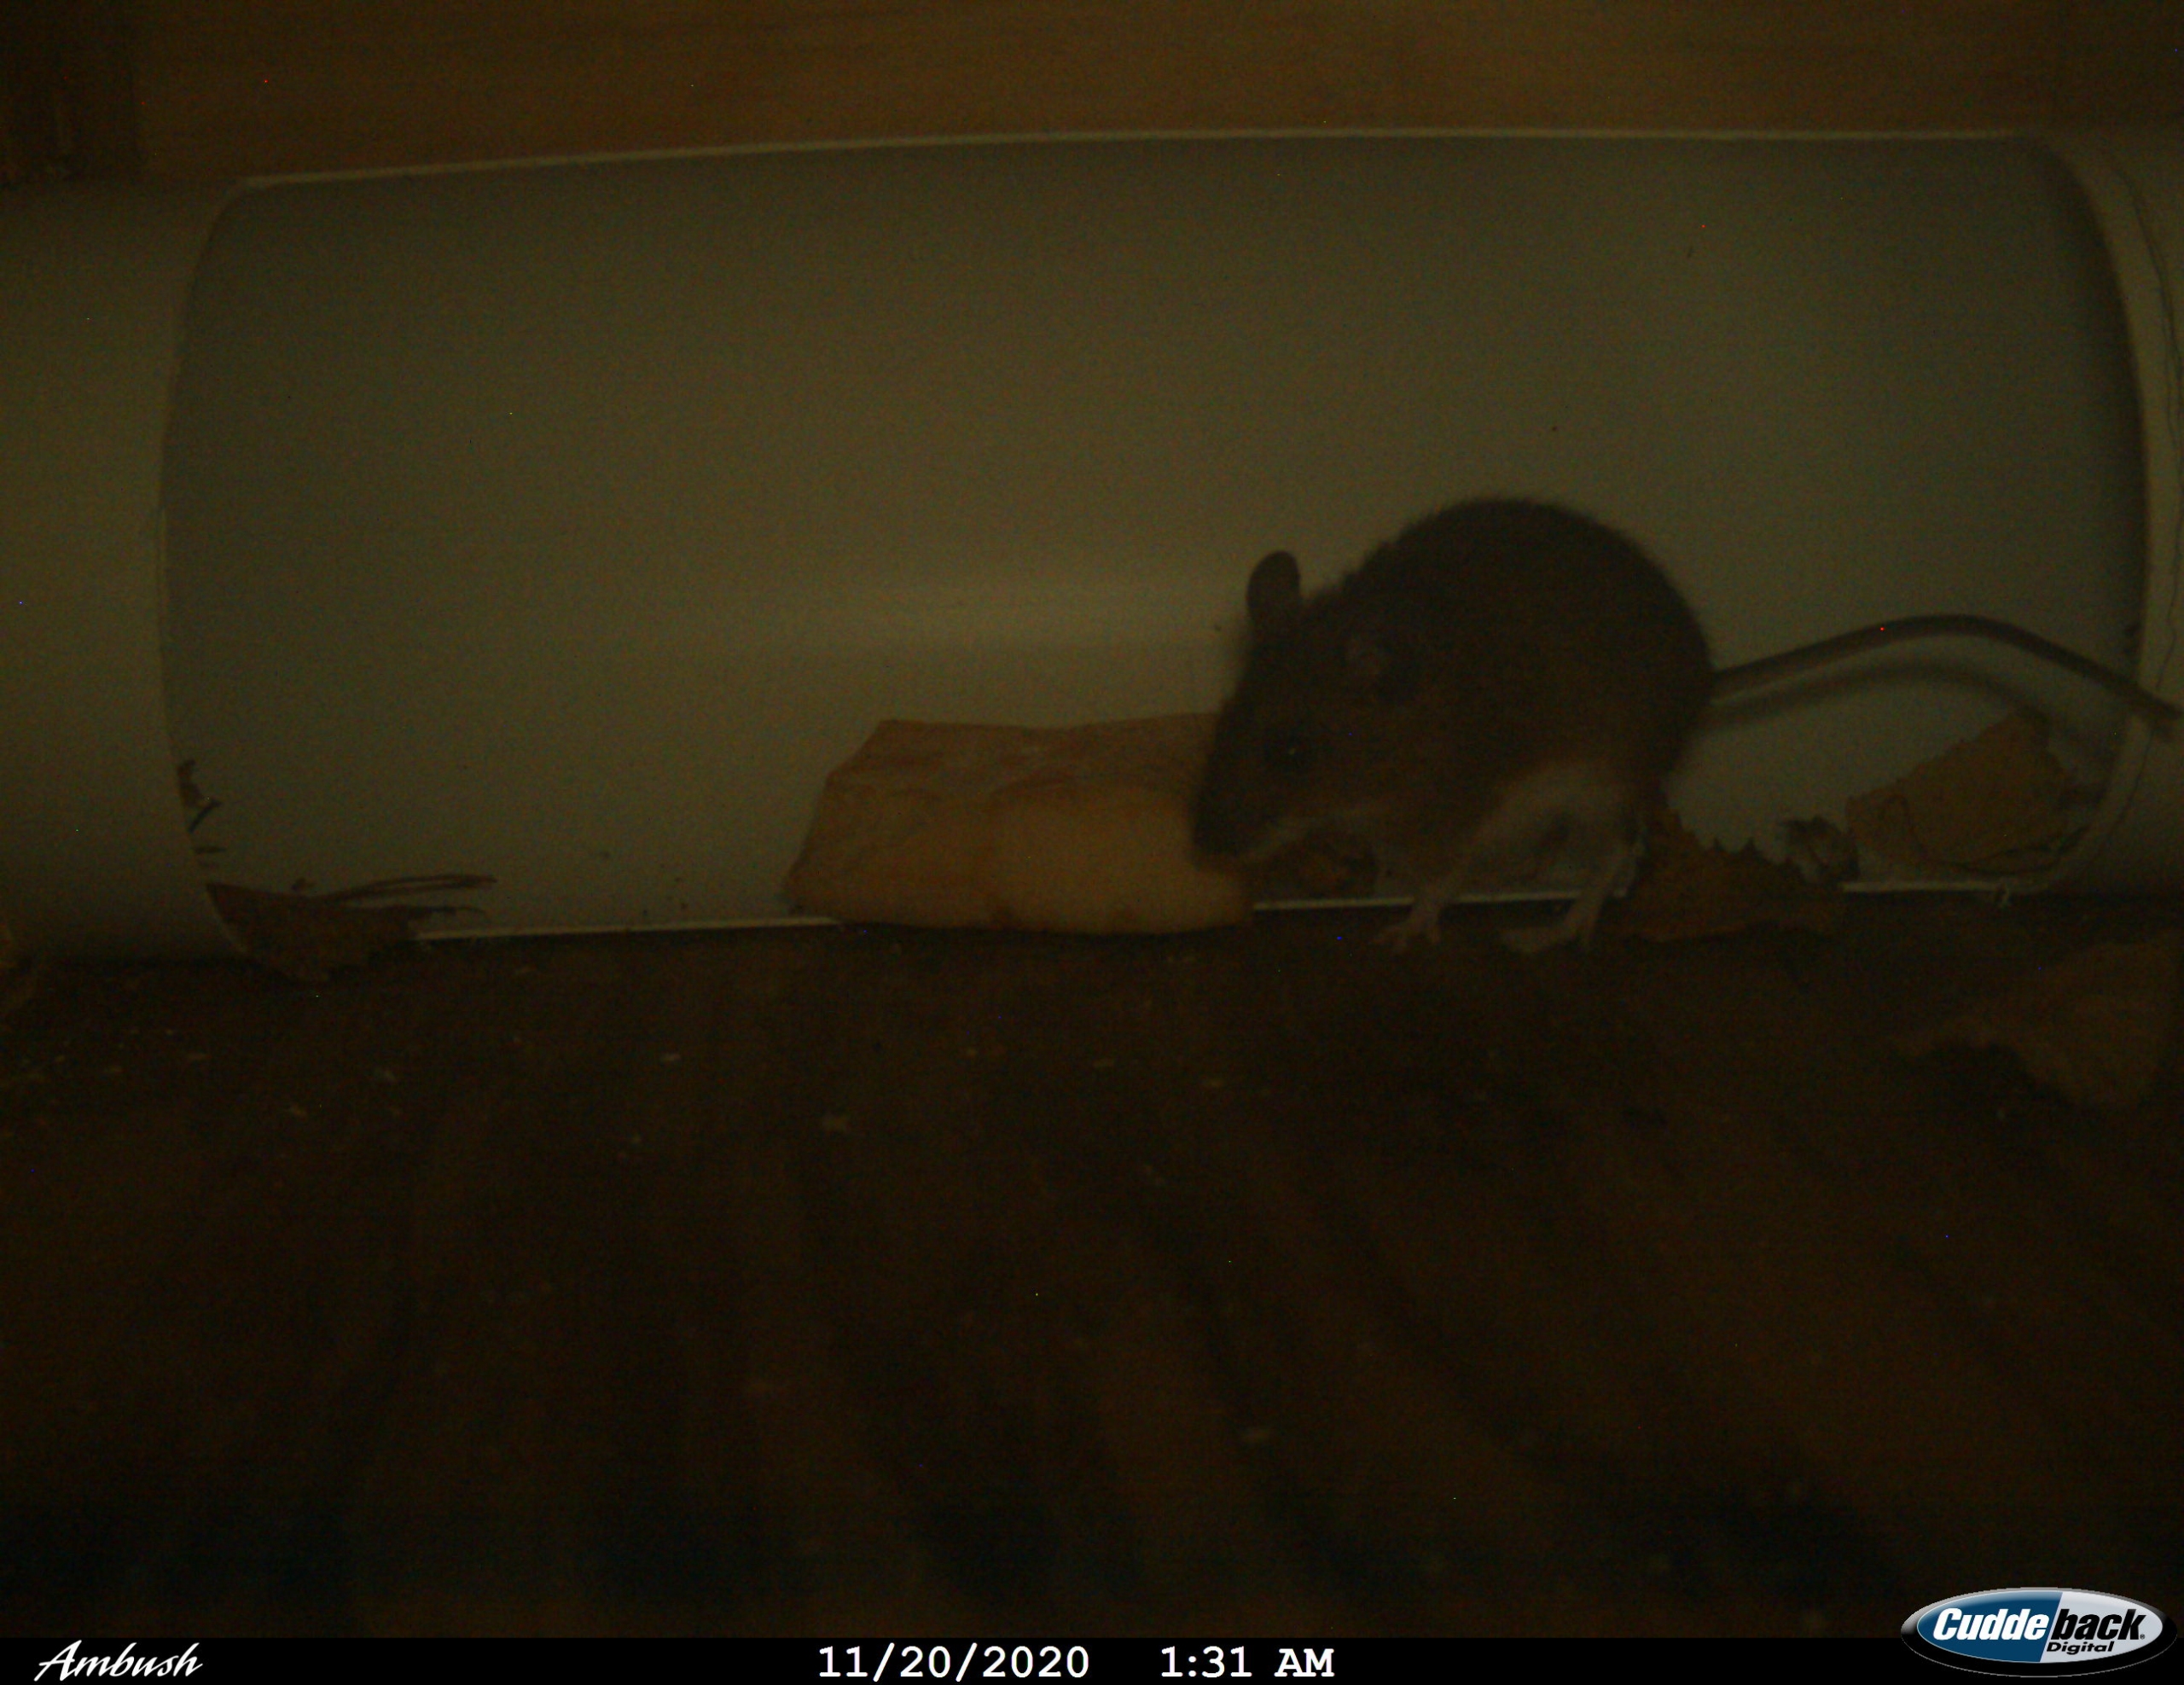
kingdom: Animalia
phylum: Chordata
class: Mammalia
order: Rodentia
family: Muridae
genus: Apodemus
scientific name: Apodemus flavicollis
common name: Halsbåndmus
